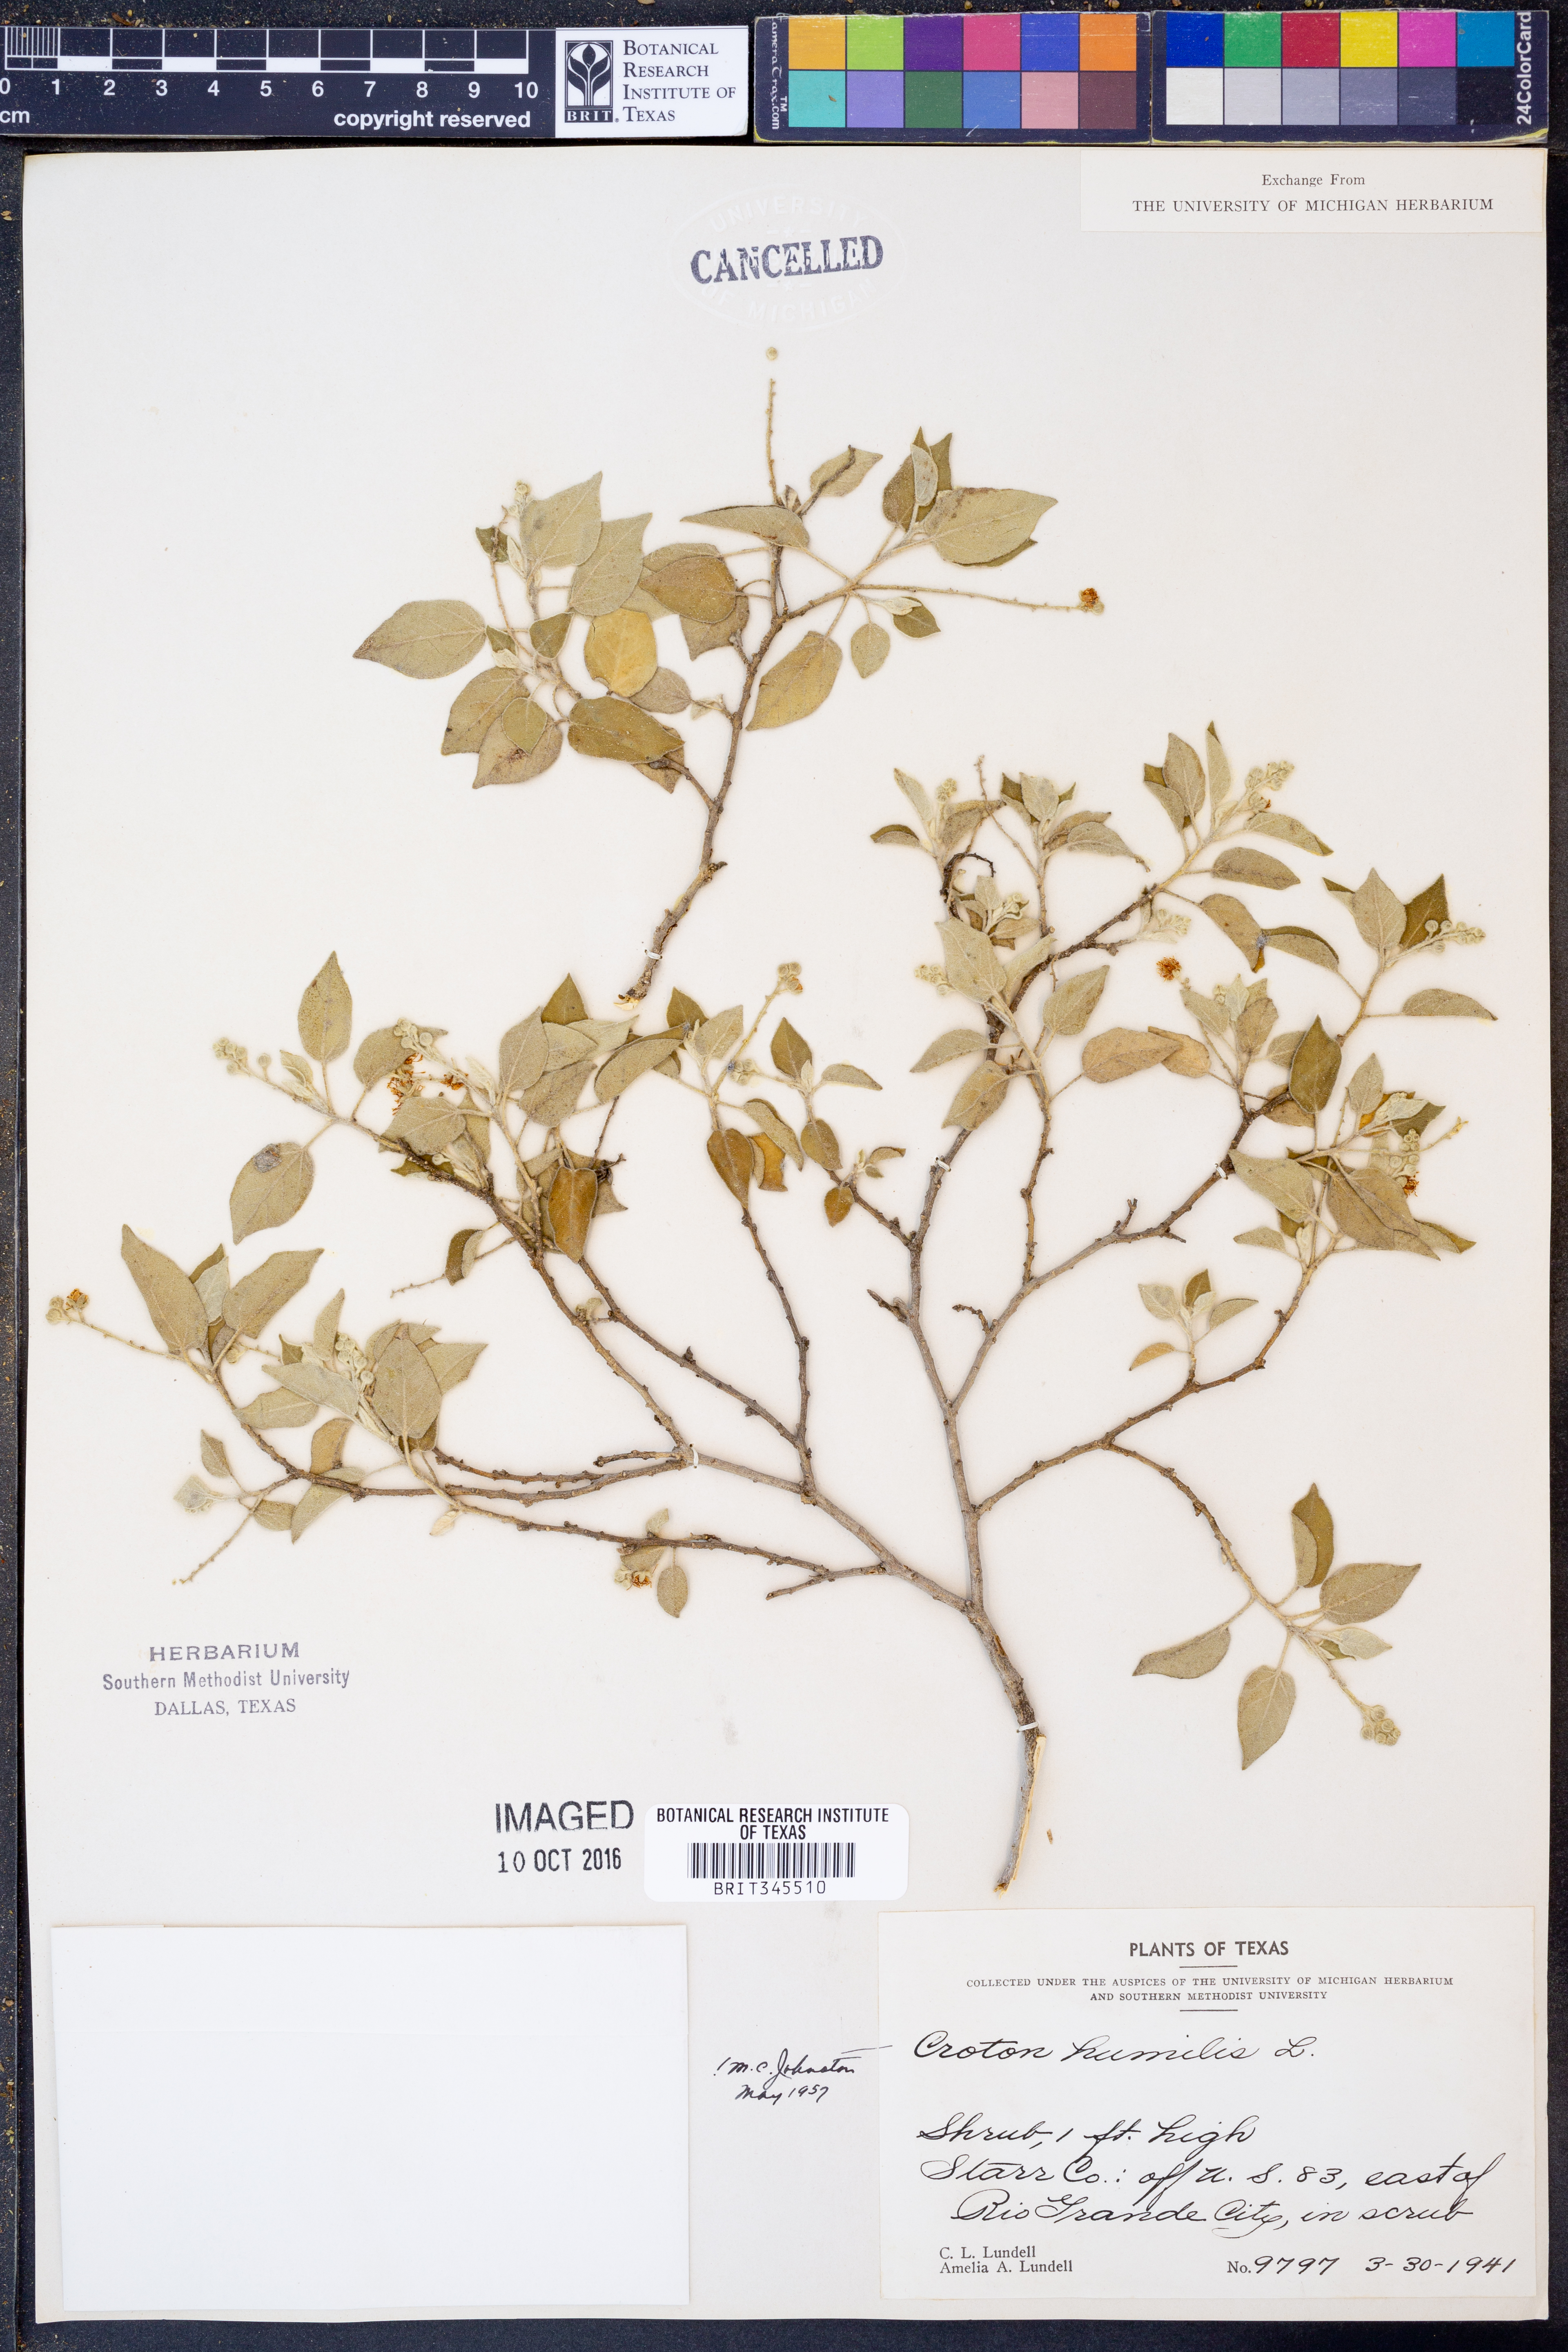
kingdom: Plantae
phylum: Tracheophyta
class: Magnoliopsida
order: Malpighiales
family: Euphorbiaceae
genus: Croton
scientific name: Croton humilis
